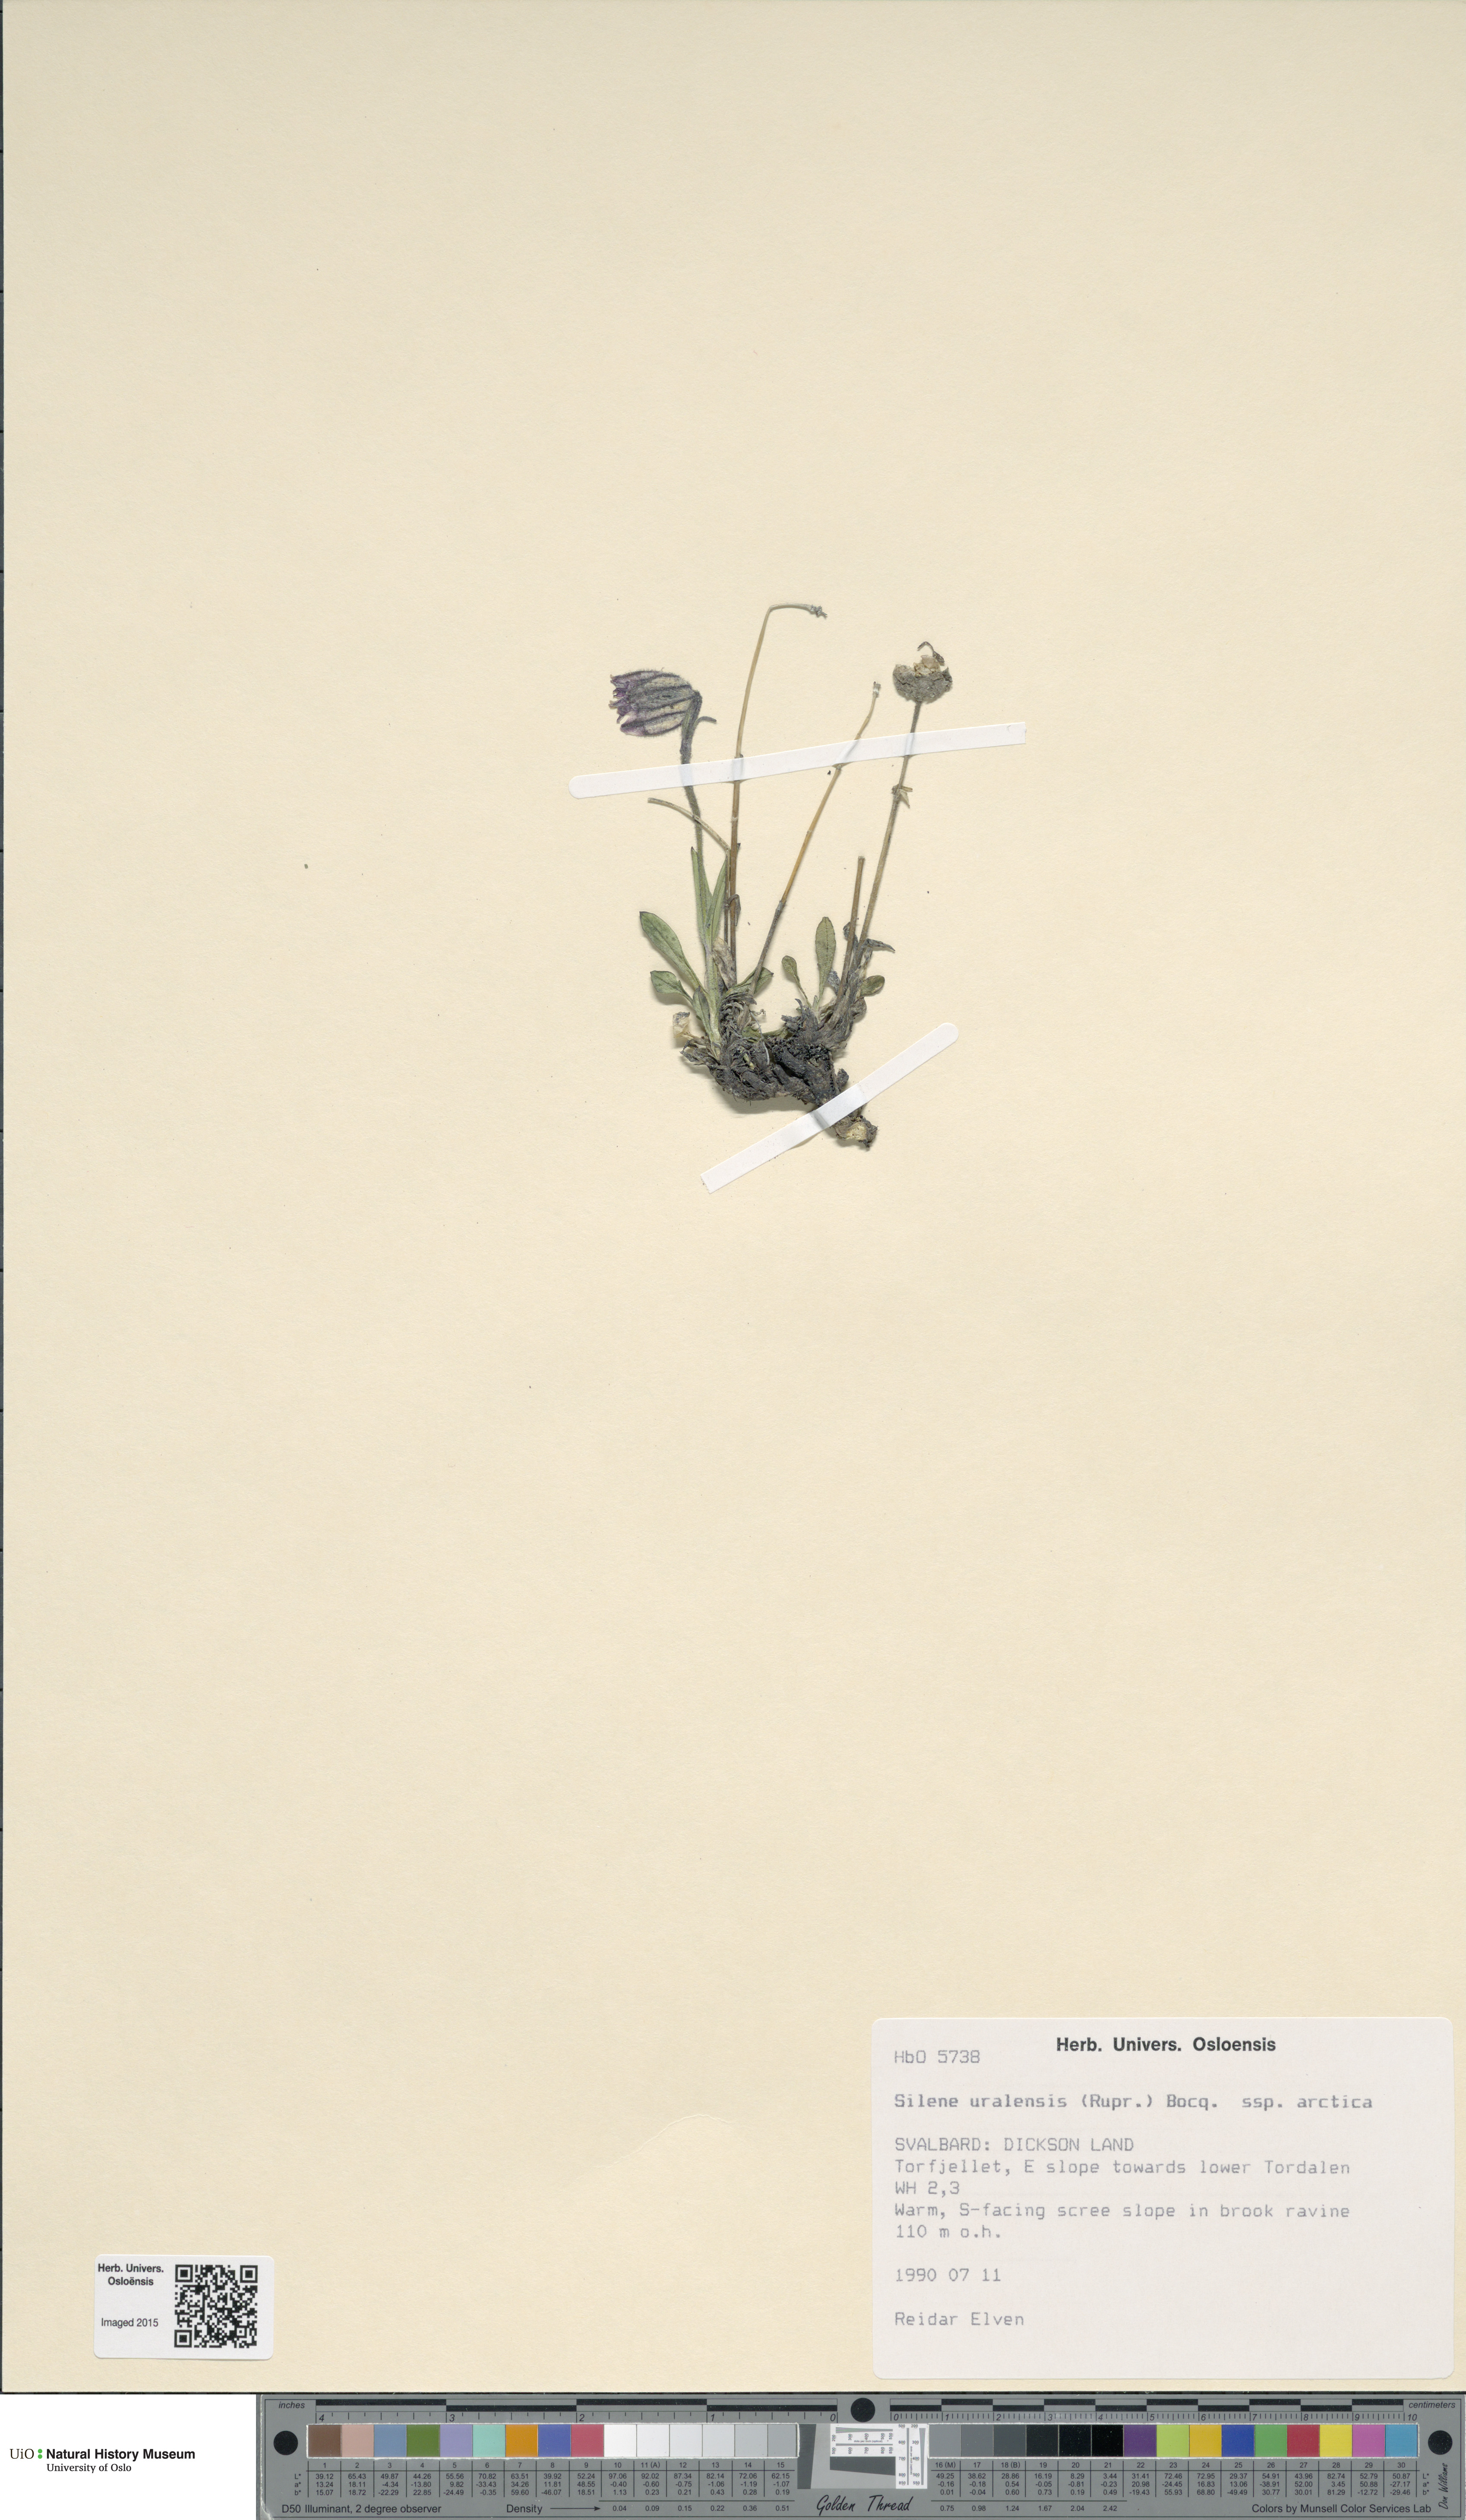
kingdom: Plantae
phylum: Tracheophyta
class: Magnoliopsida
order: Caryophyllales
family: Caryophyllaceae
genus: Silene
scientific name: Silene uralensis
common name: Nodding campion
